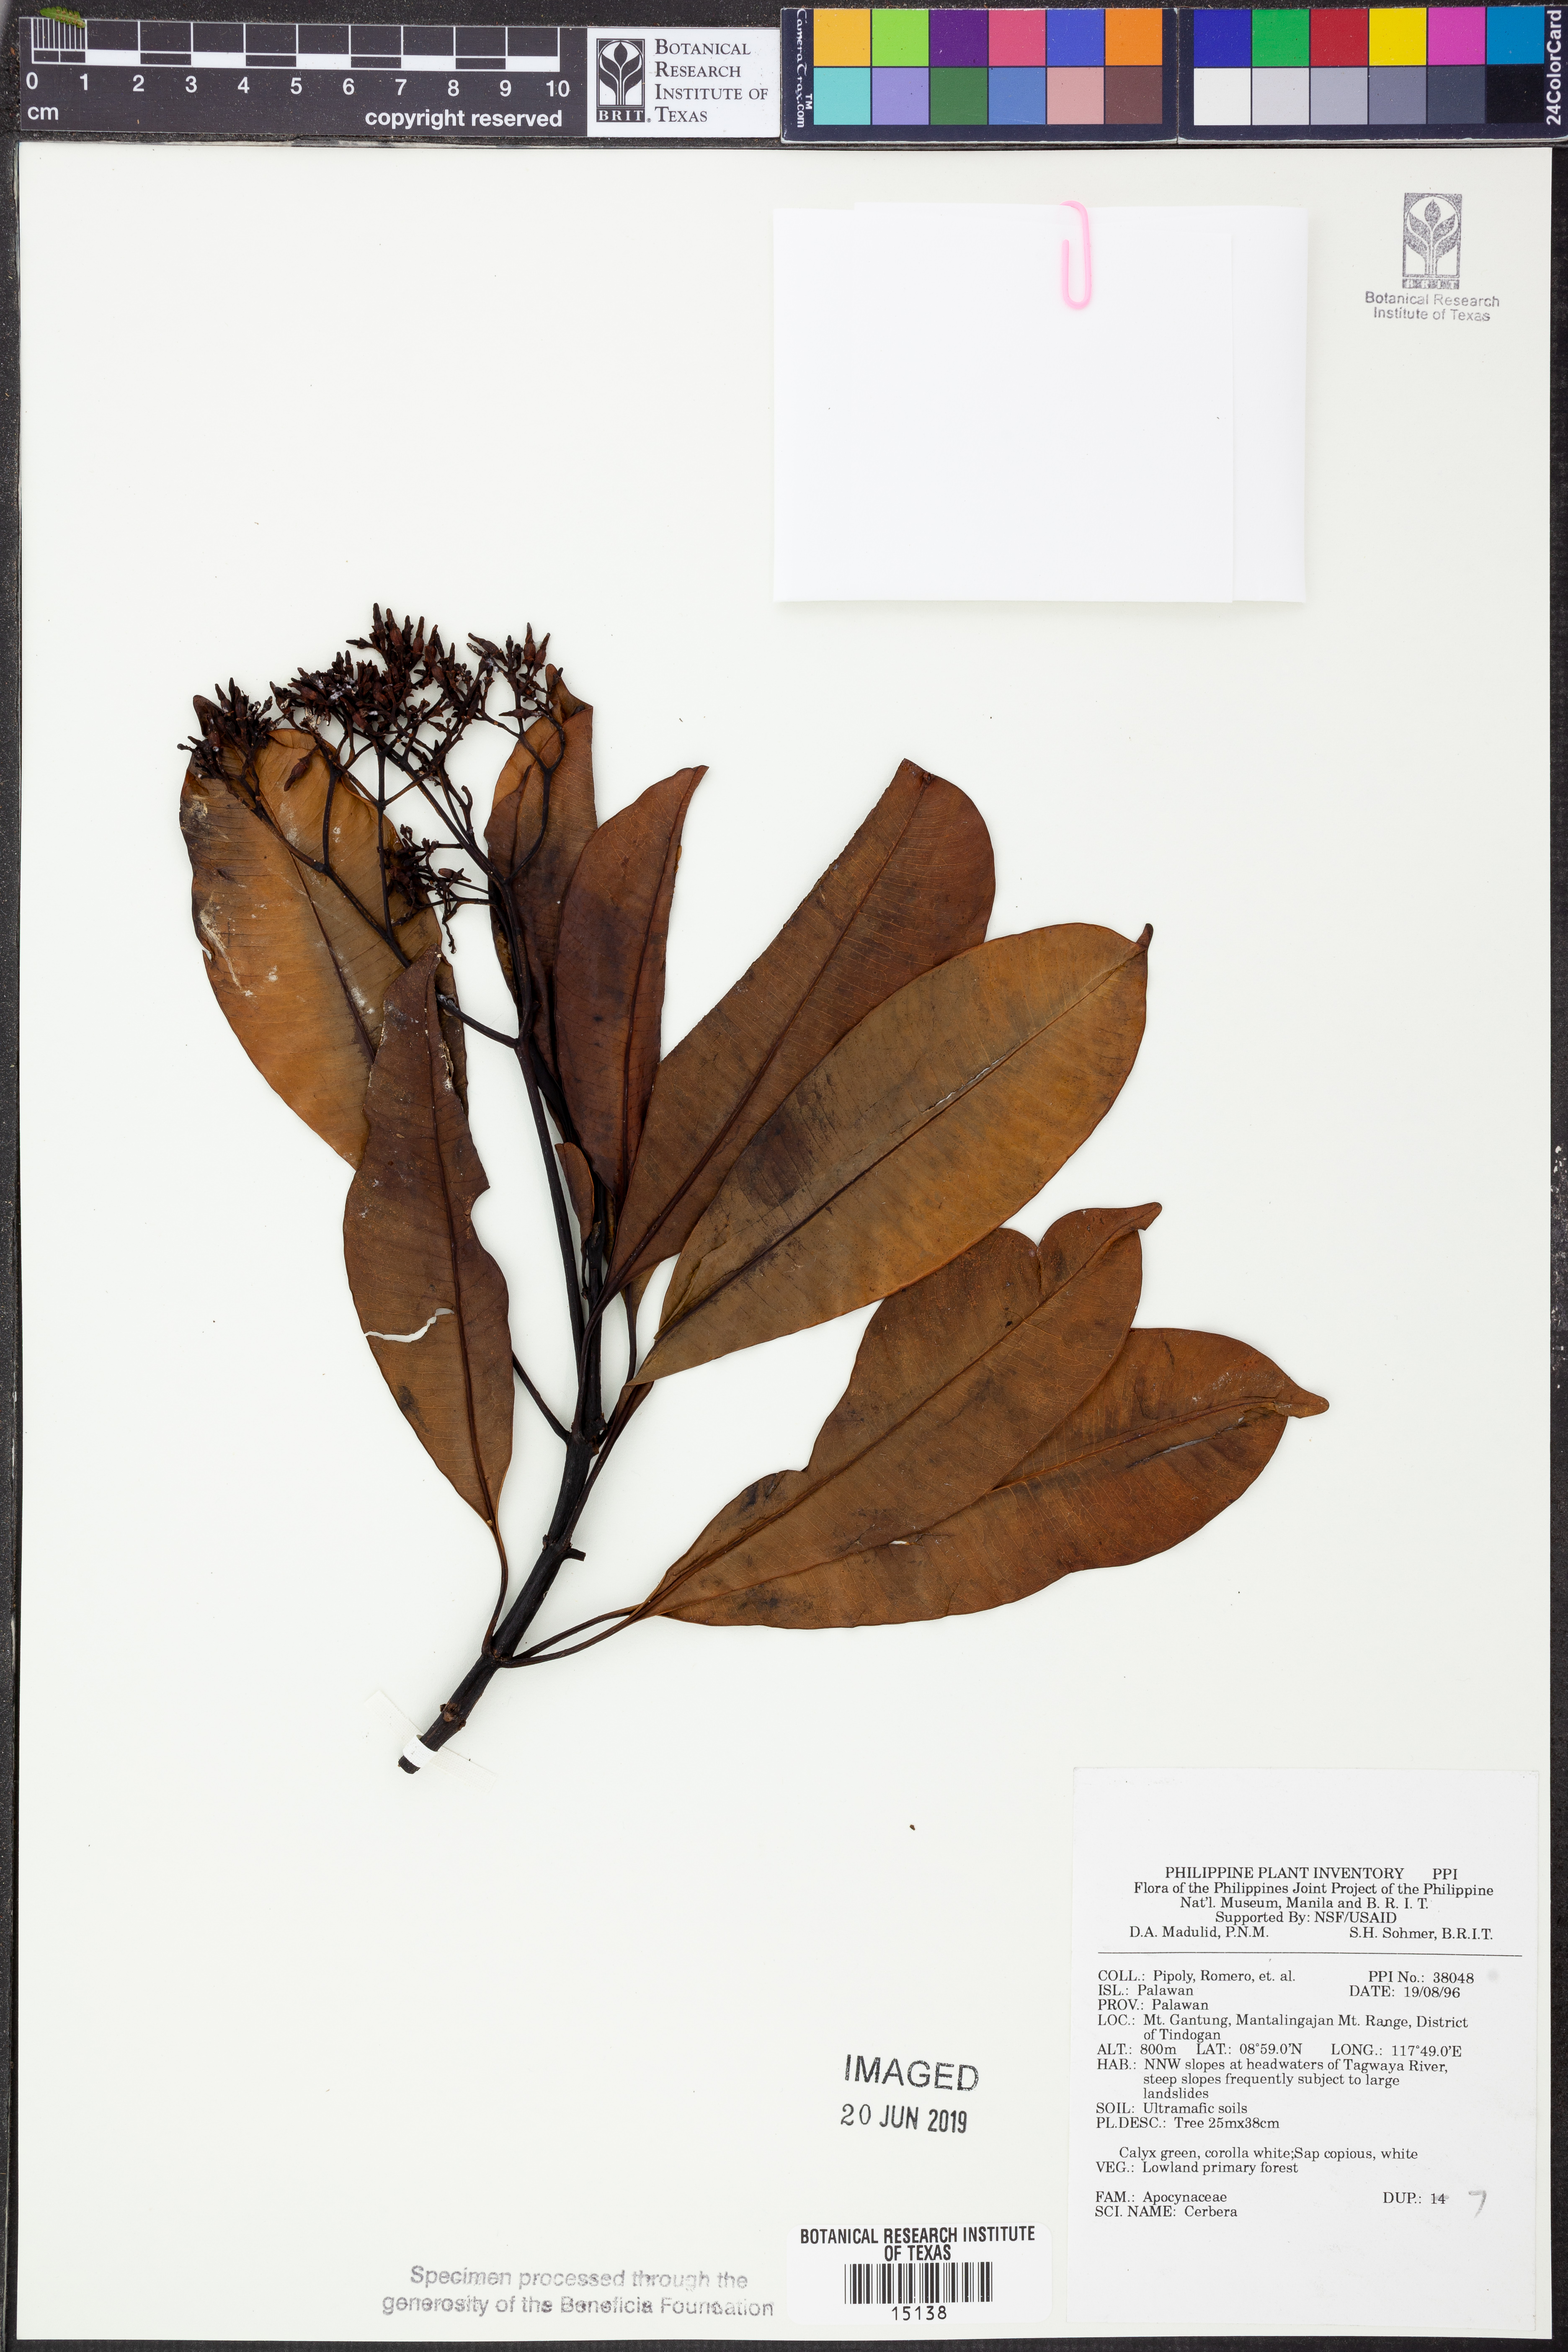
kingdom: Plantae
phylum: Tracheophyta
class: Magnoliopsida
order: Gentianales
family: Apocynaceae
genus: Cerbera
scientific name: Cerbera
